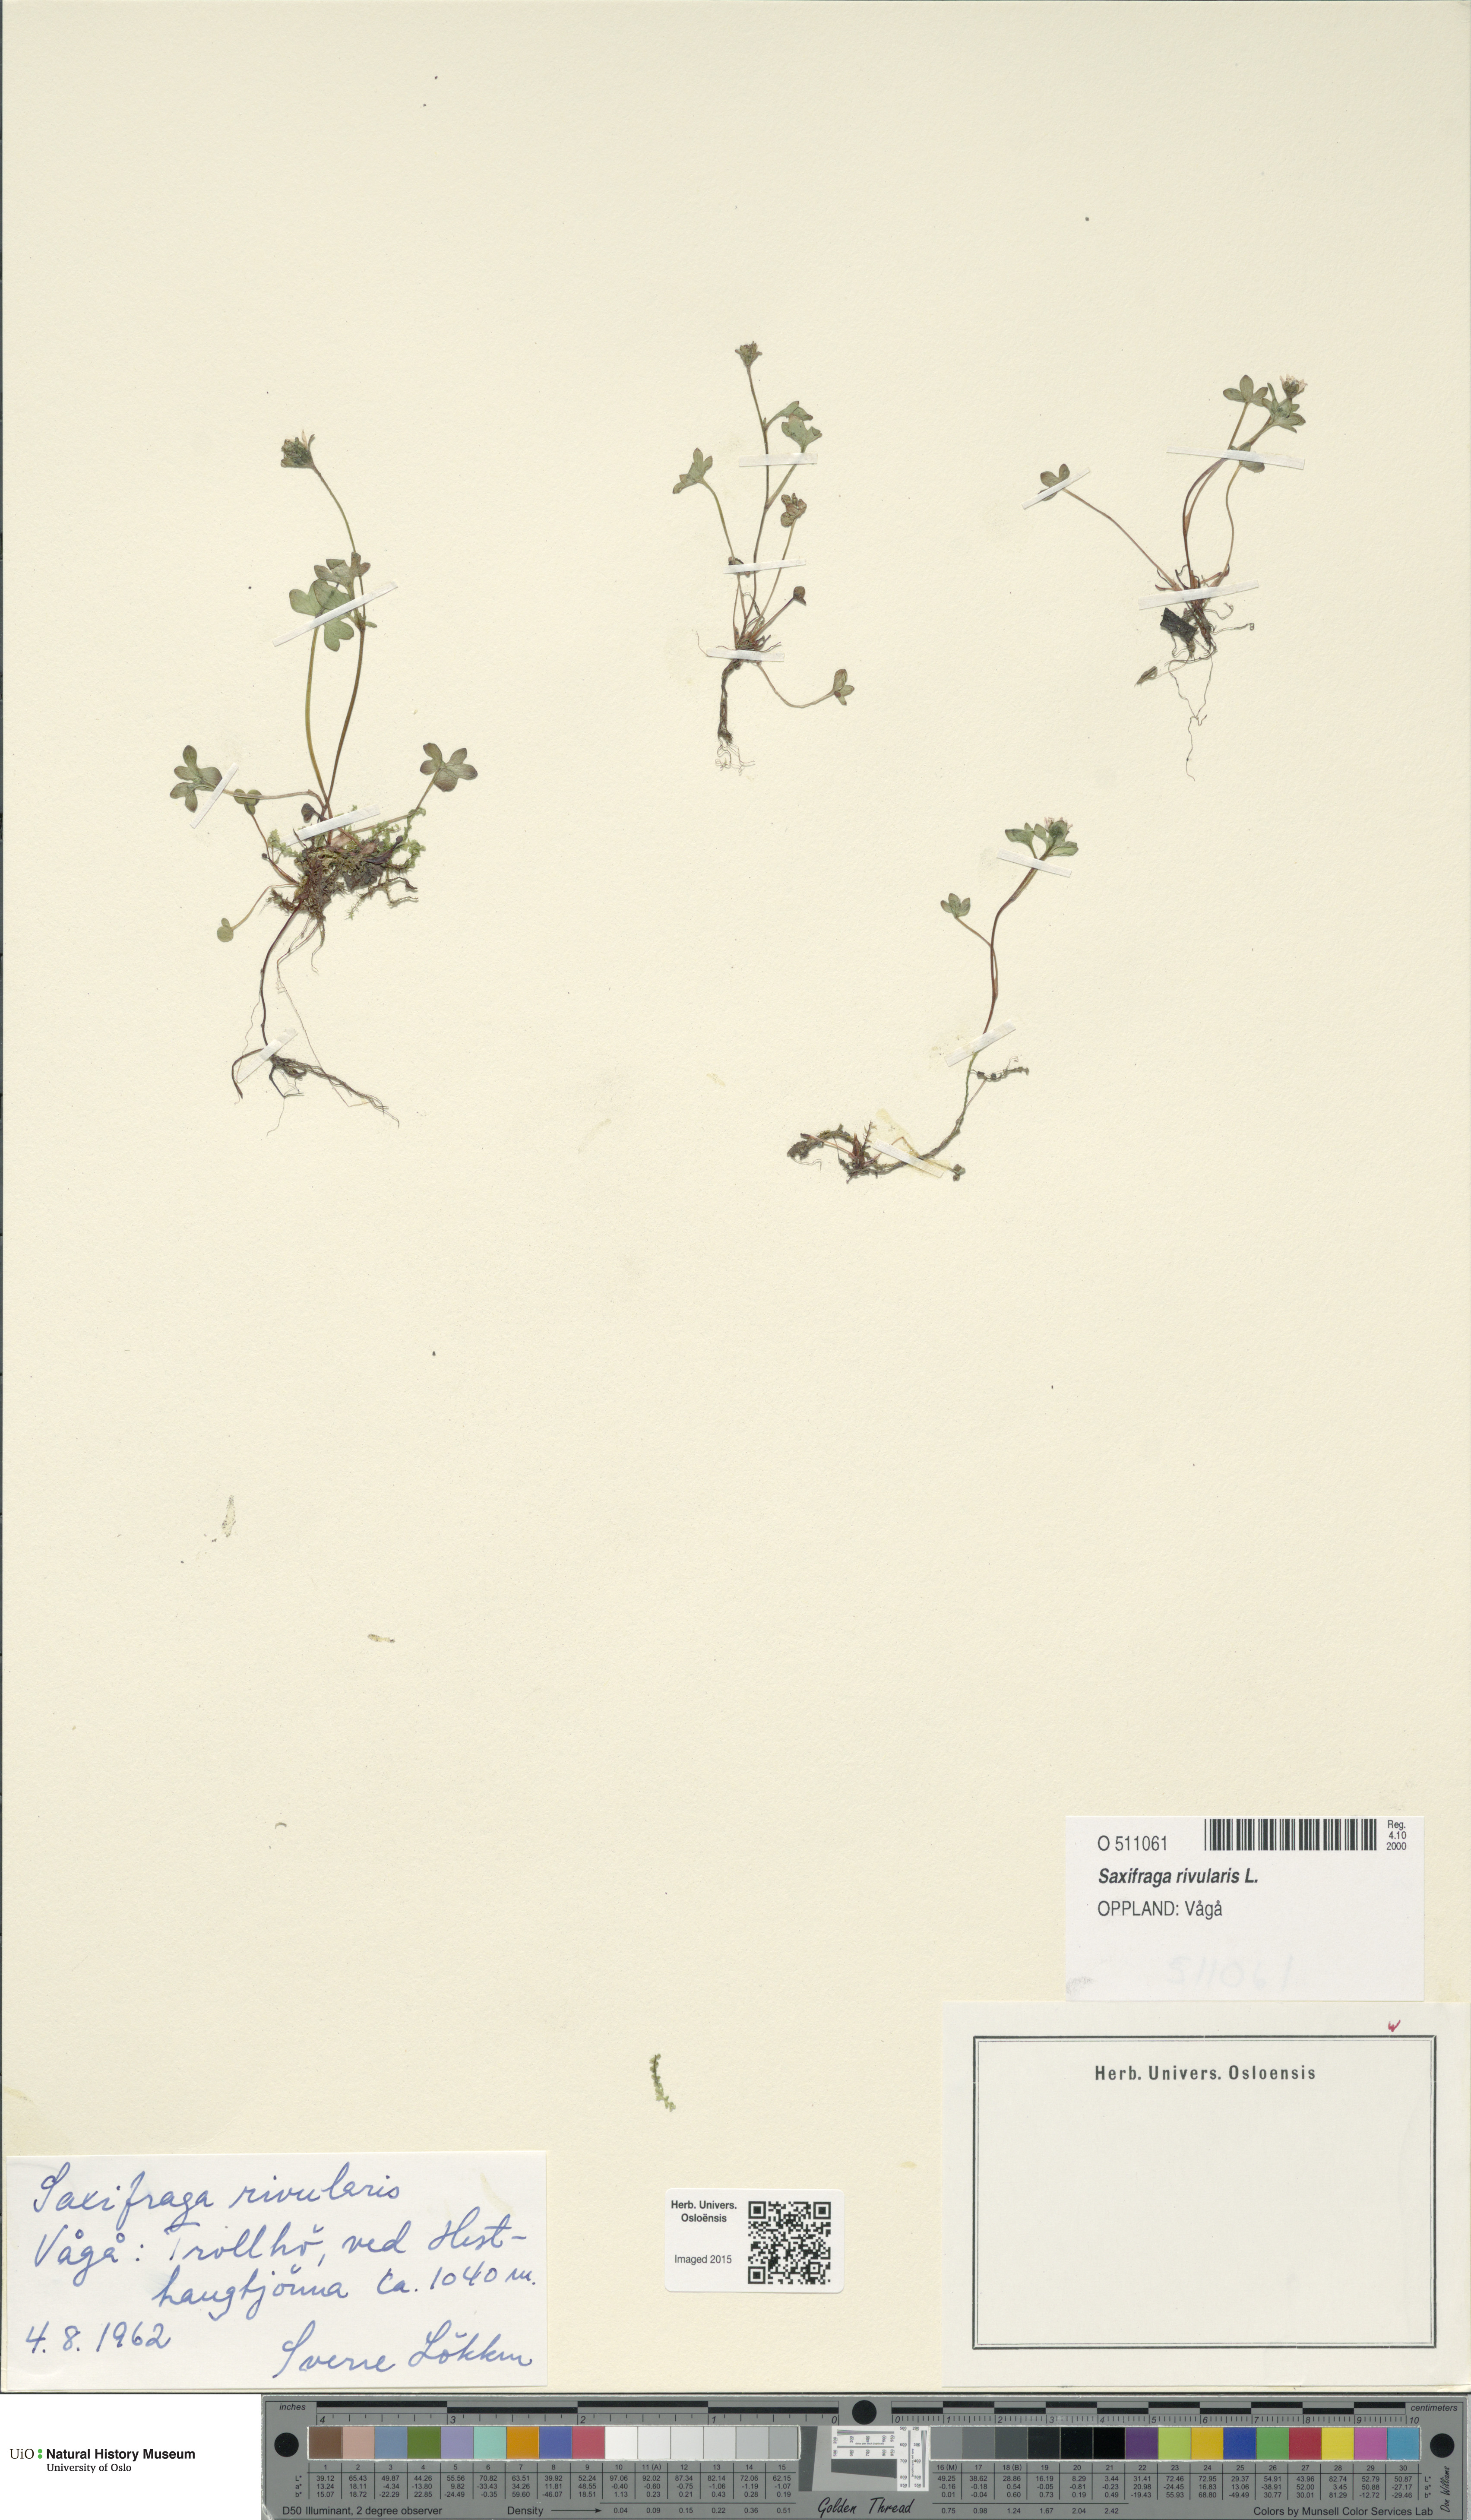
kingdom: Plantae
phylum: Tracheophyta
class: Magnoliopsida
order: Saxifragales
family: Saxifragaceae
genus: Saxifraga
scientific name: Saxifraga rivularis
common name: Highland saxifrage
